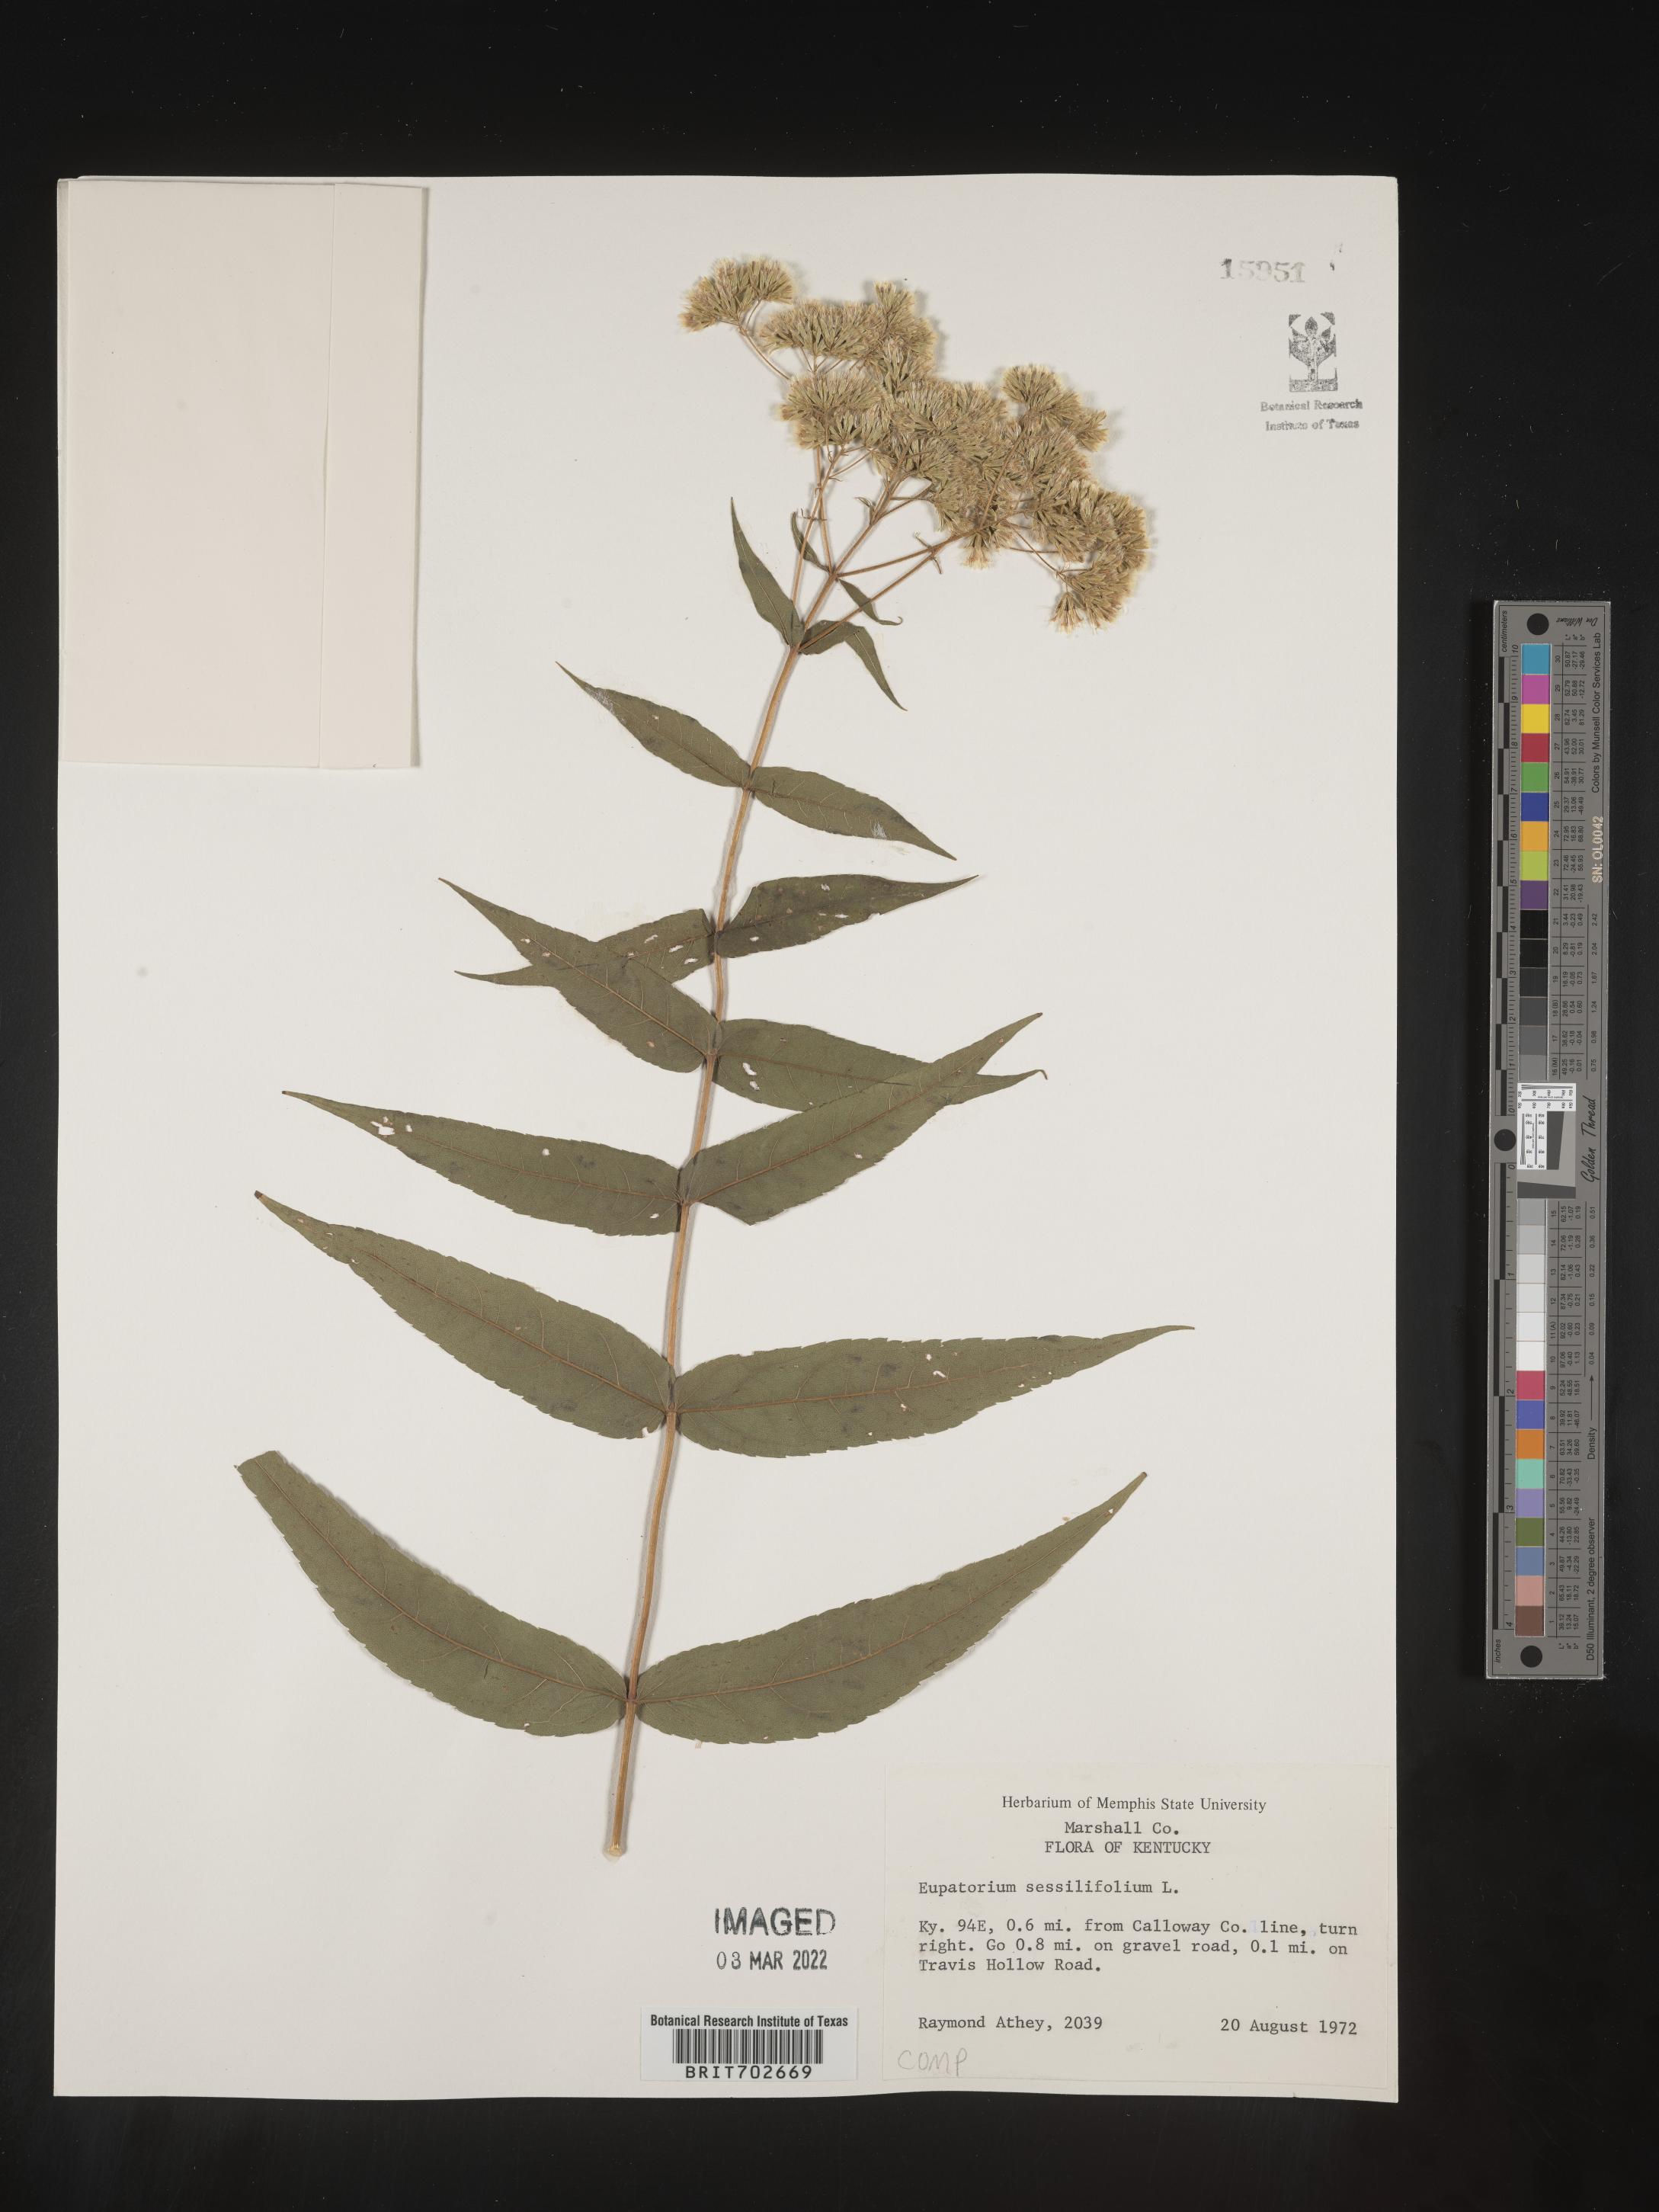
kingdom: Plantae
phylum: Tracheophyta
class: Magnoliopsida
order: Asterales
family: Asteraceae
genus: Eupatorium
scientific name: Eupatorium sessilifolium
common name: Upland boneset
